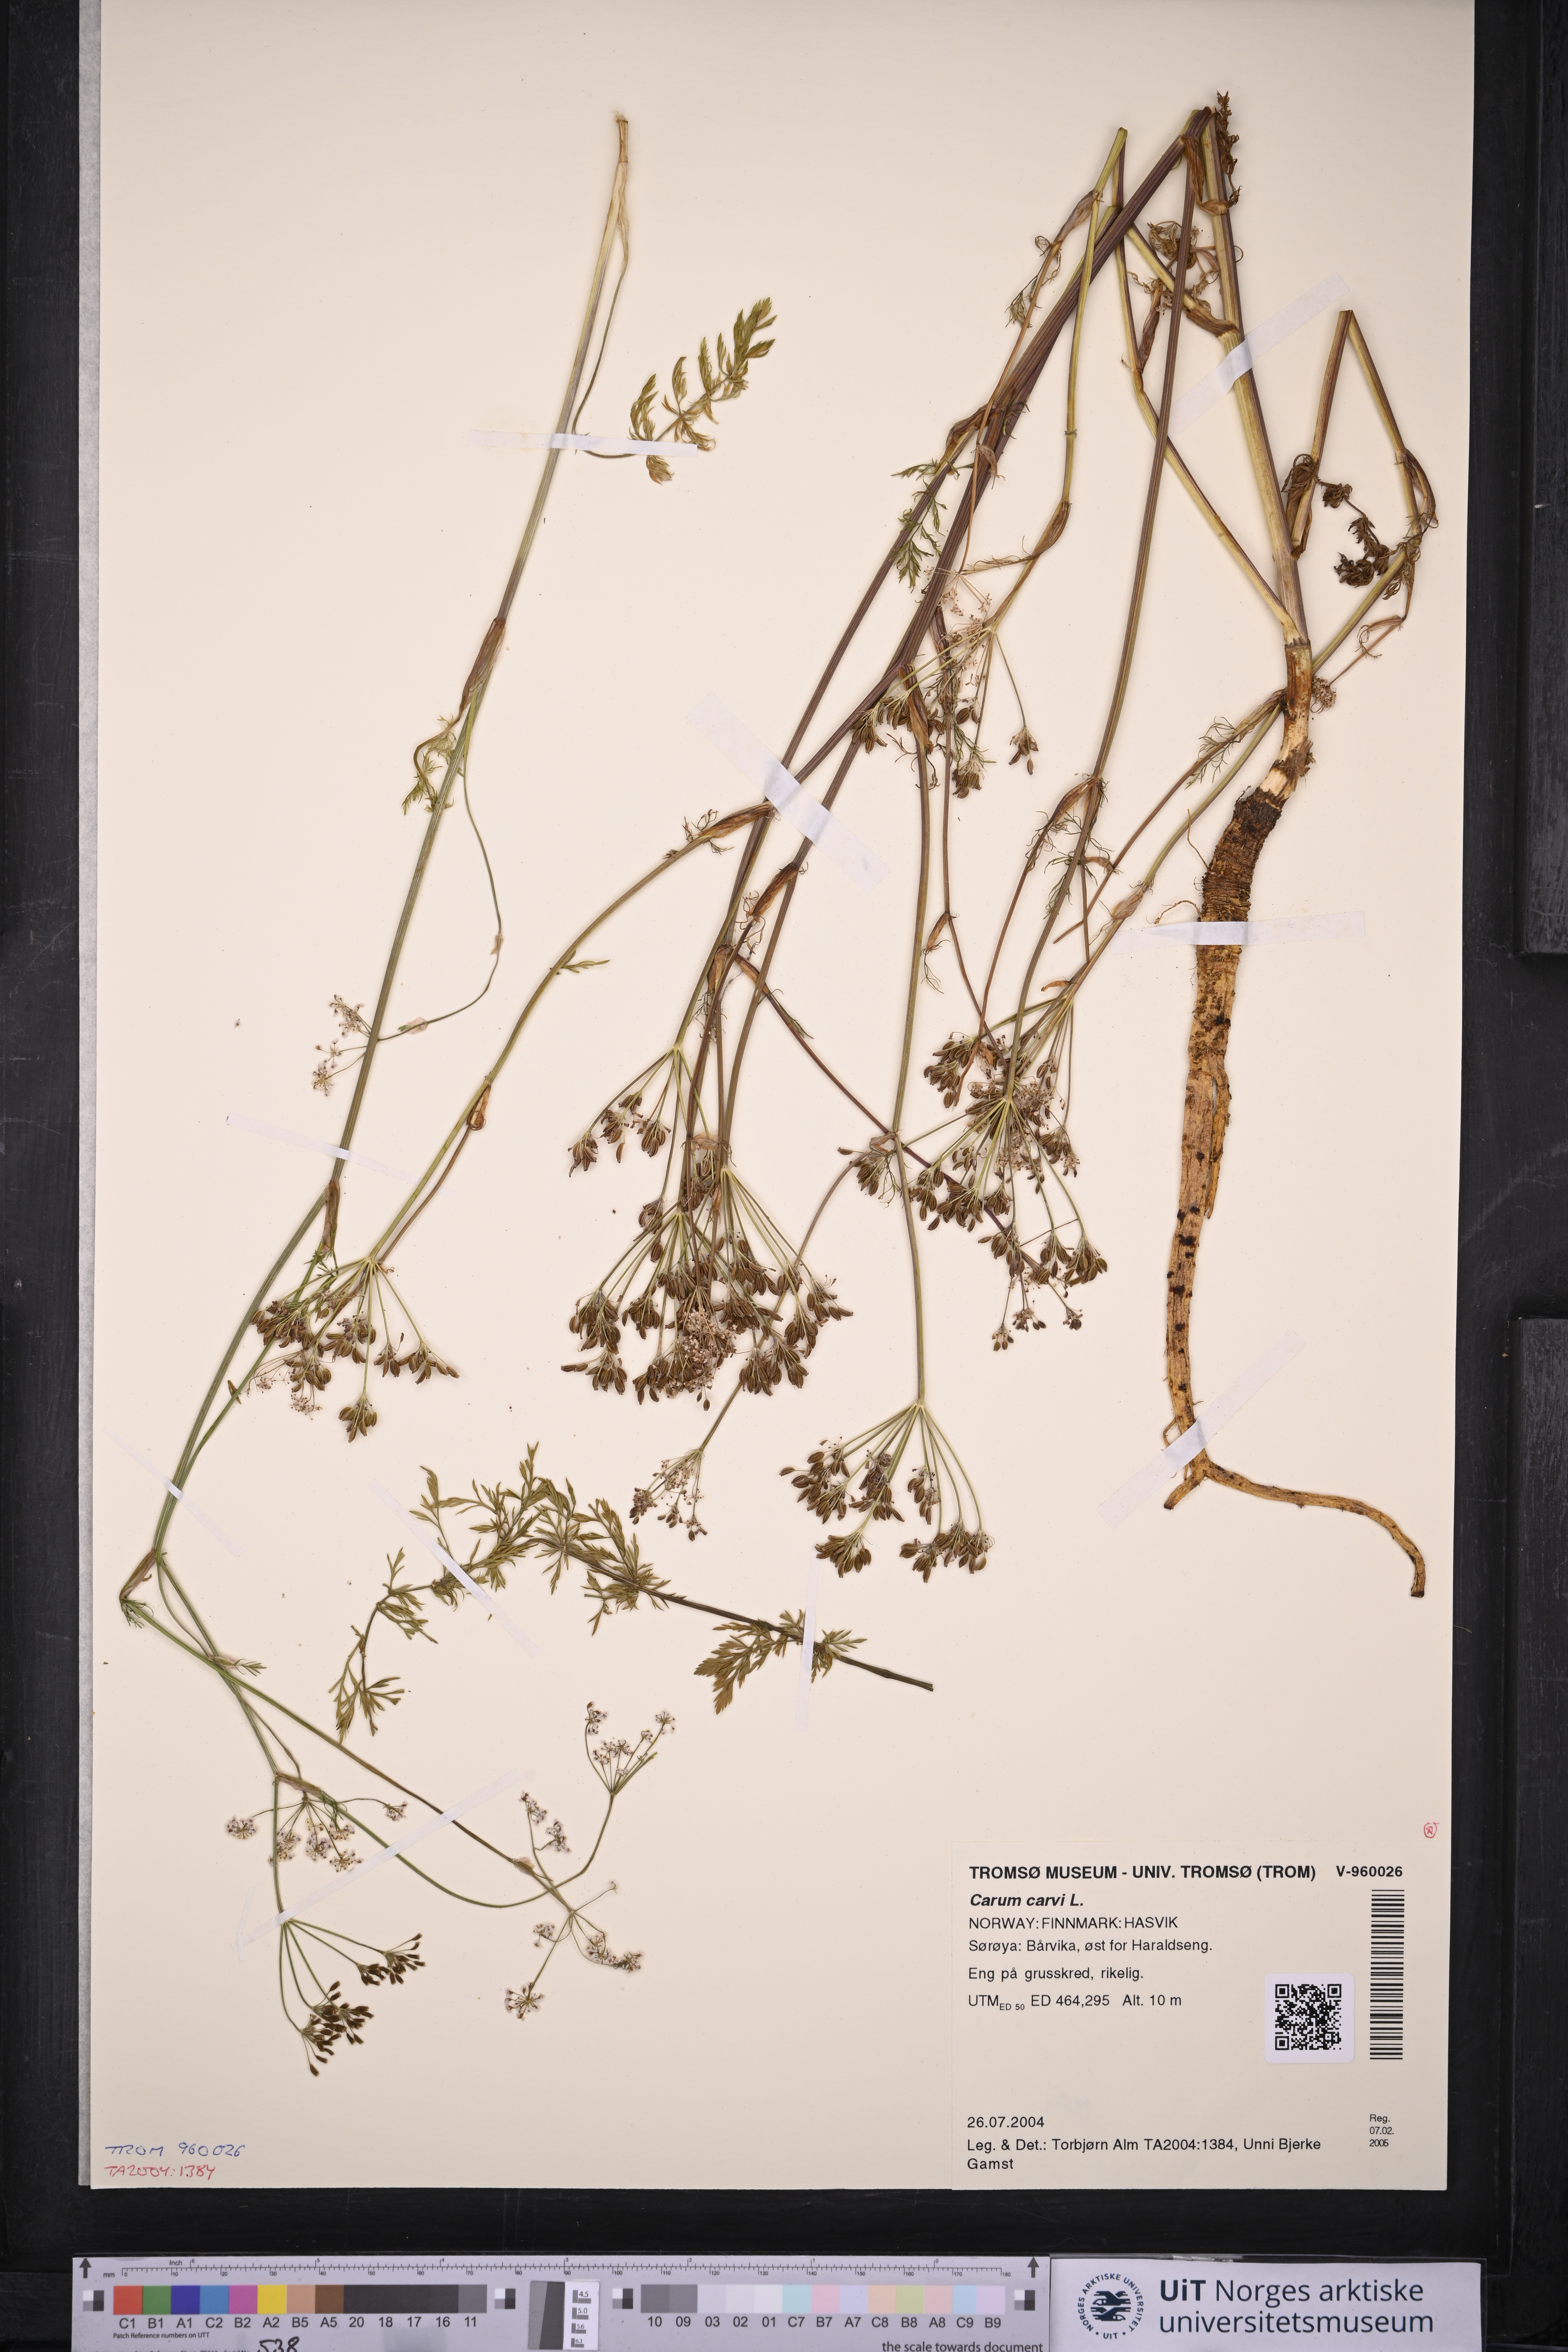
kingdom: Plantae
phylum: Tracheophyta
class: Magnoliopsida
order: Apiales
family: Apiaceae
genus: Carum
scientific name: Carum carvi
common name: Caraway
